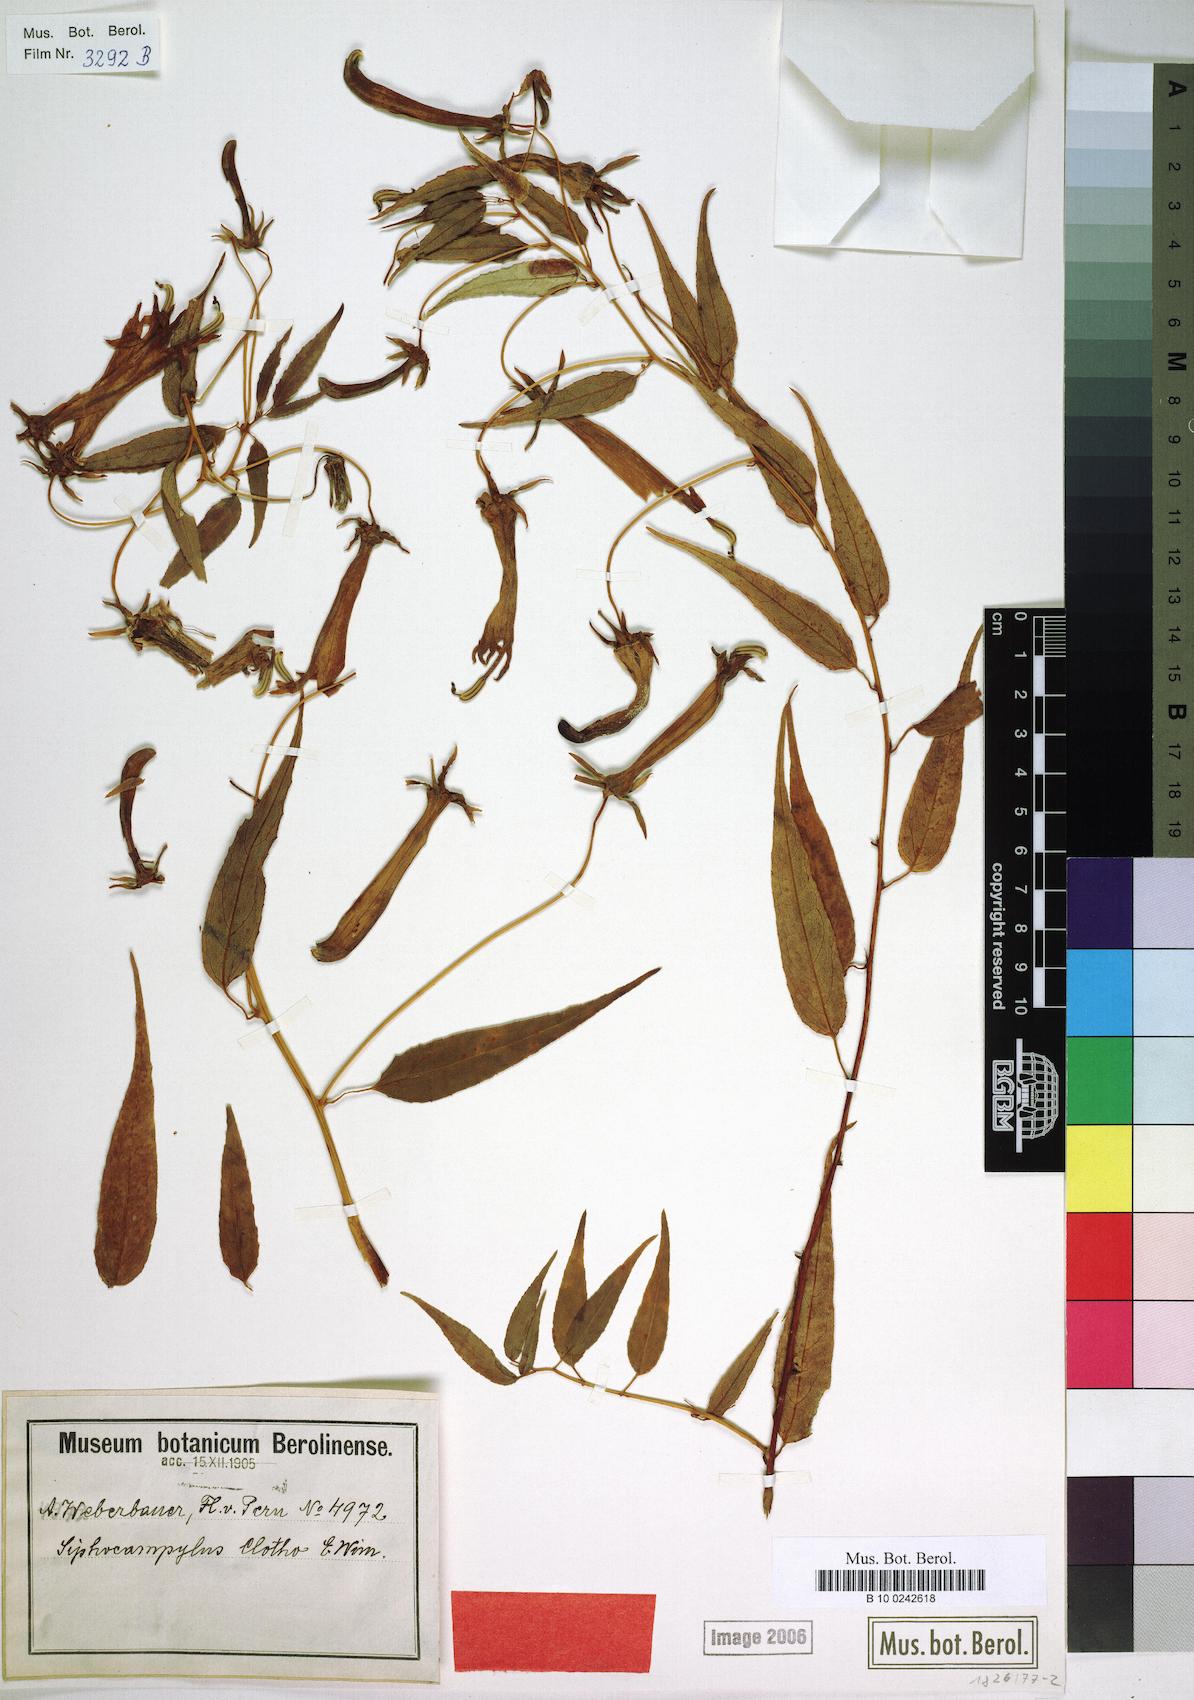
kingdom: Plantae
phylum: Tracheophyta
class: Magnoliopsida
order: Asterales
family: Campanulaceae
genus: Siphocampylus
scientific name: Siphocampylus clotho
